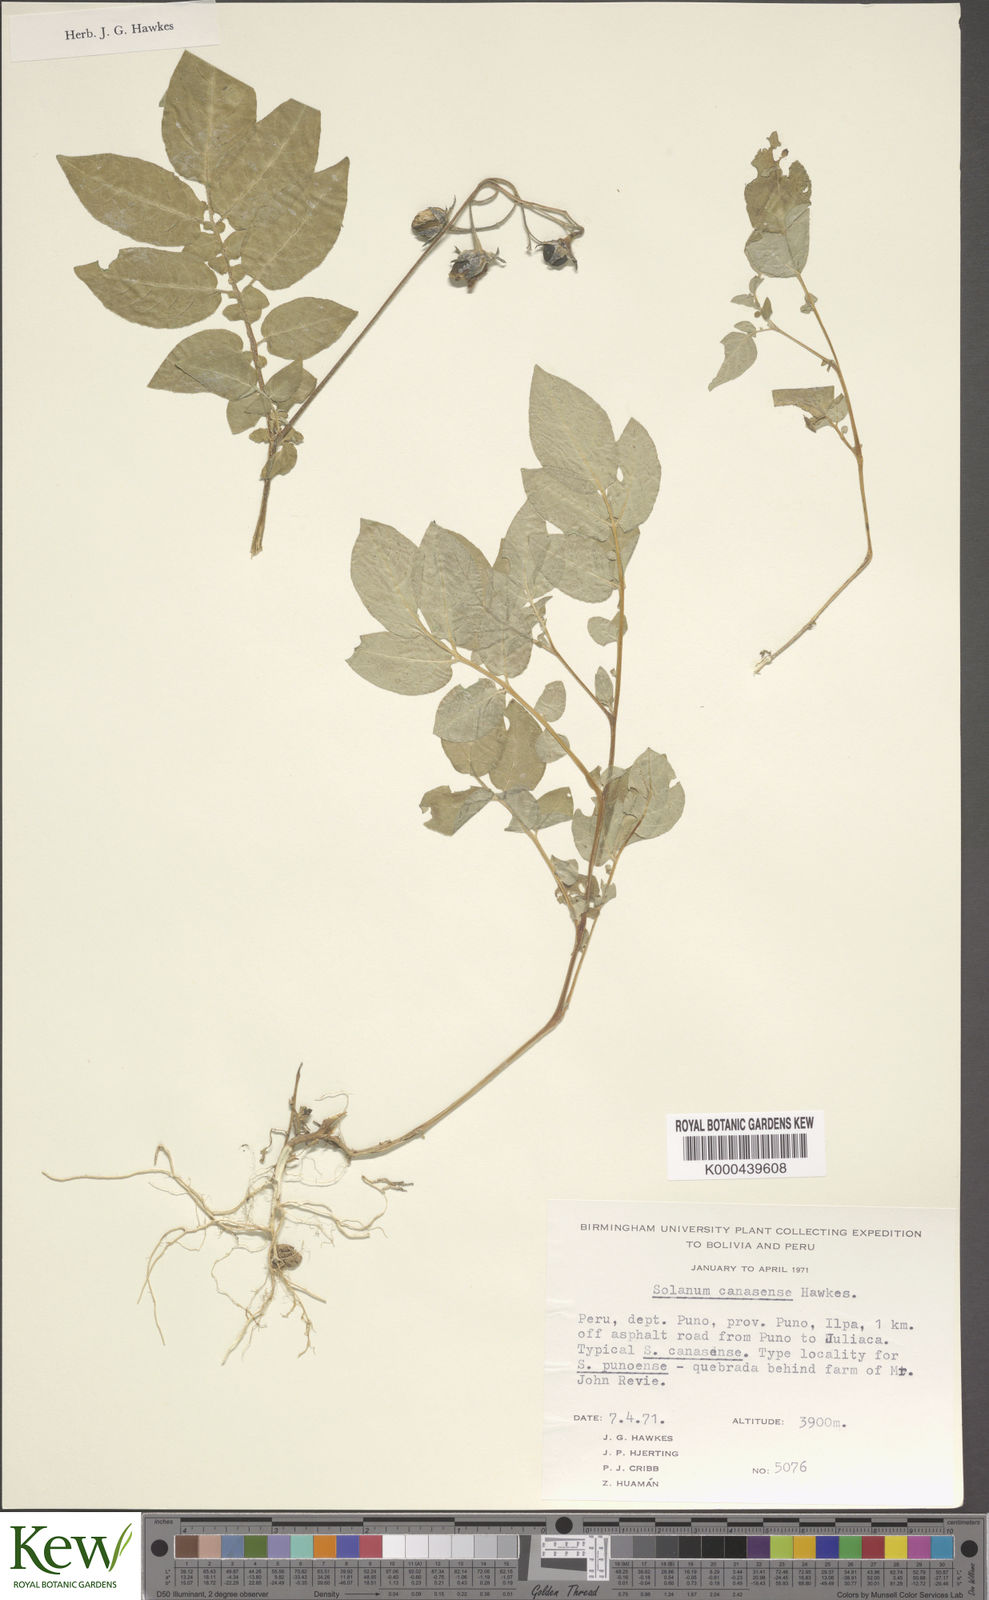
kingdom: Plantae
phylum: Tracheophyta
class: Magnoliopsida
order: Solanales
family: Solanaceae
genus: Solanum
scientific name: Solanum candolleanum
